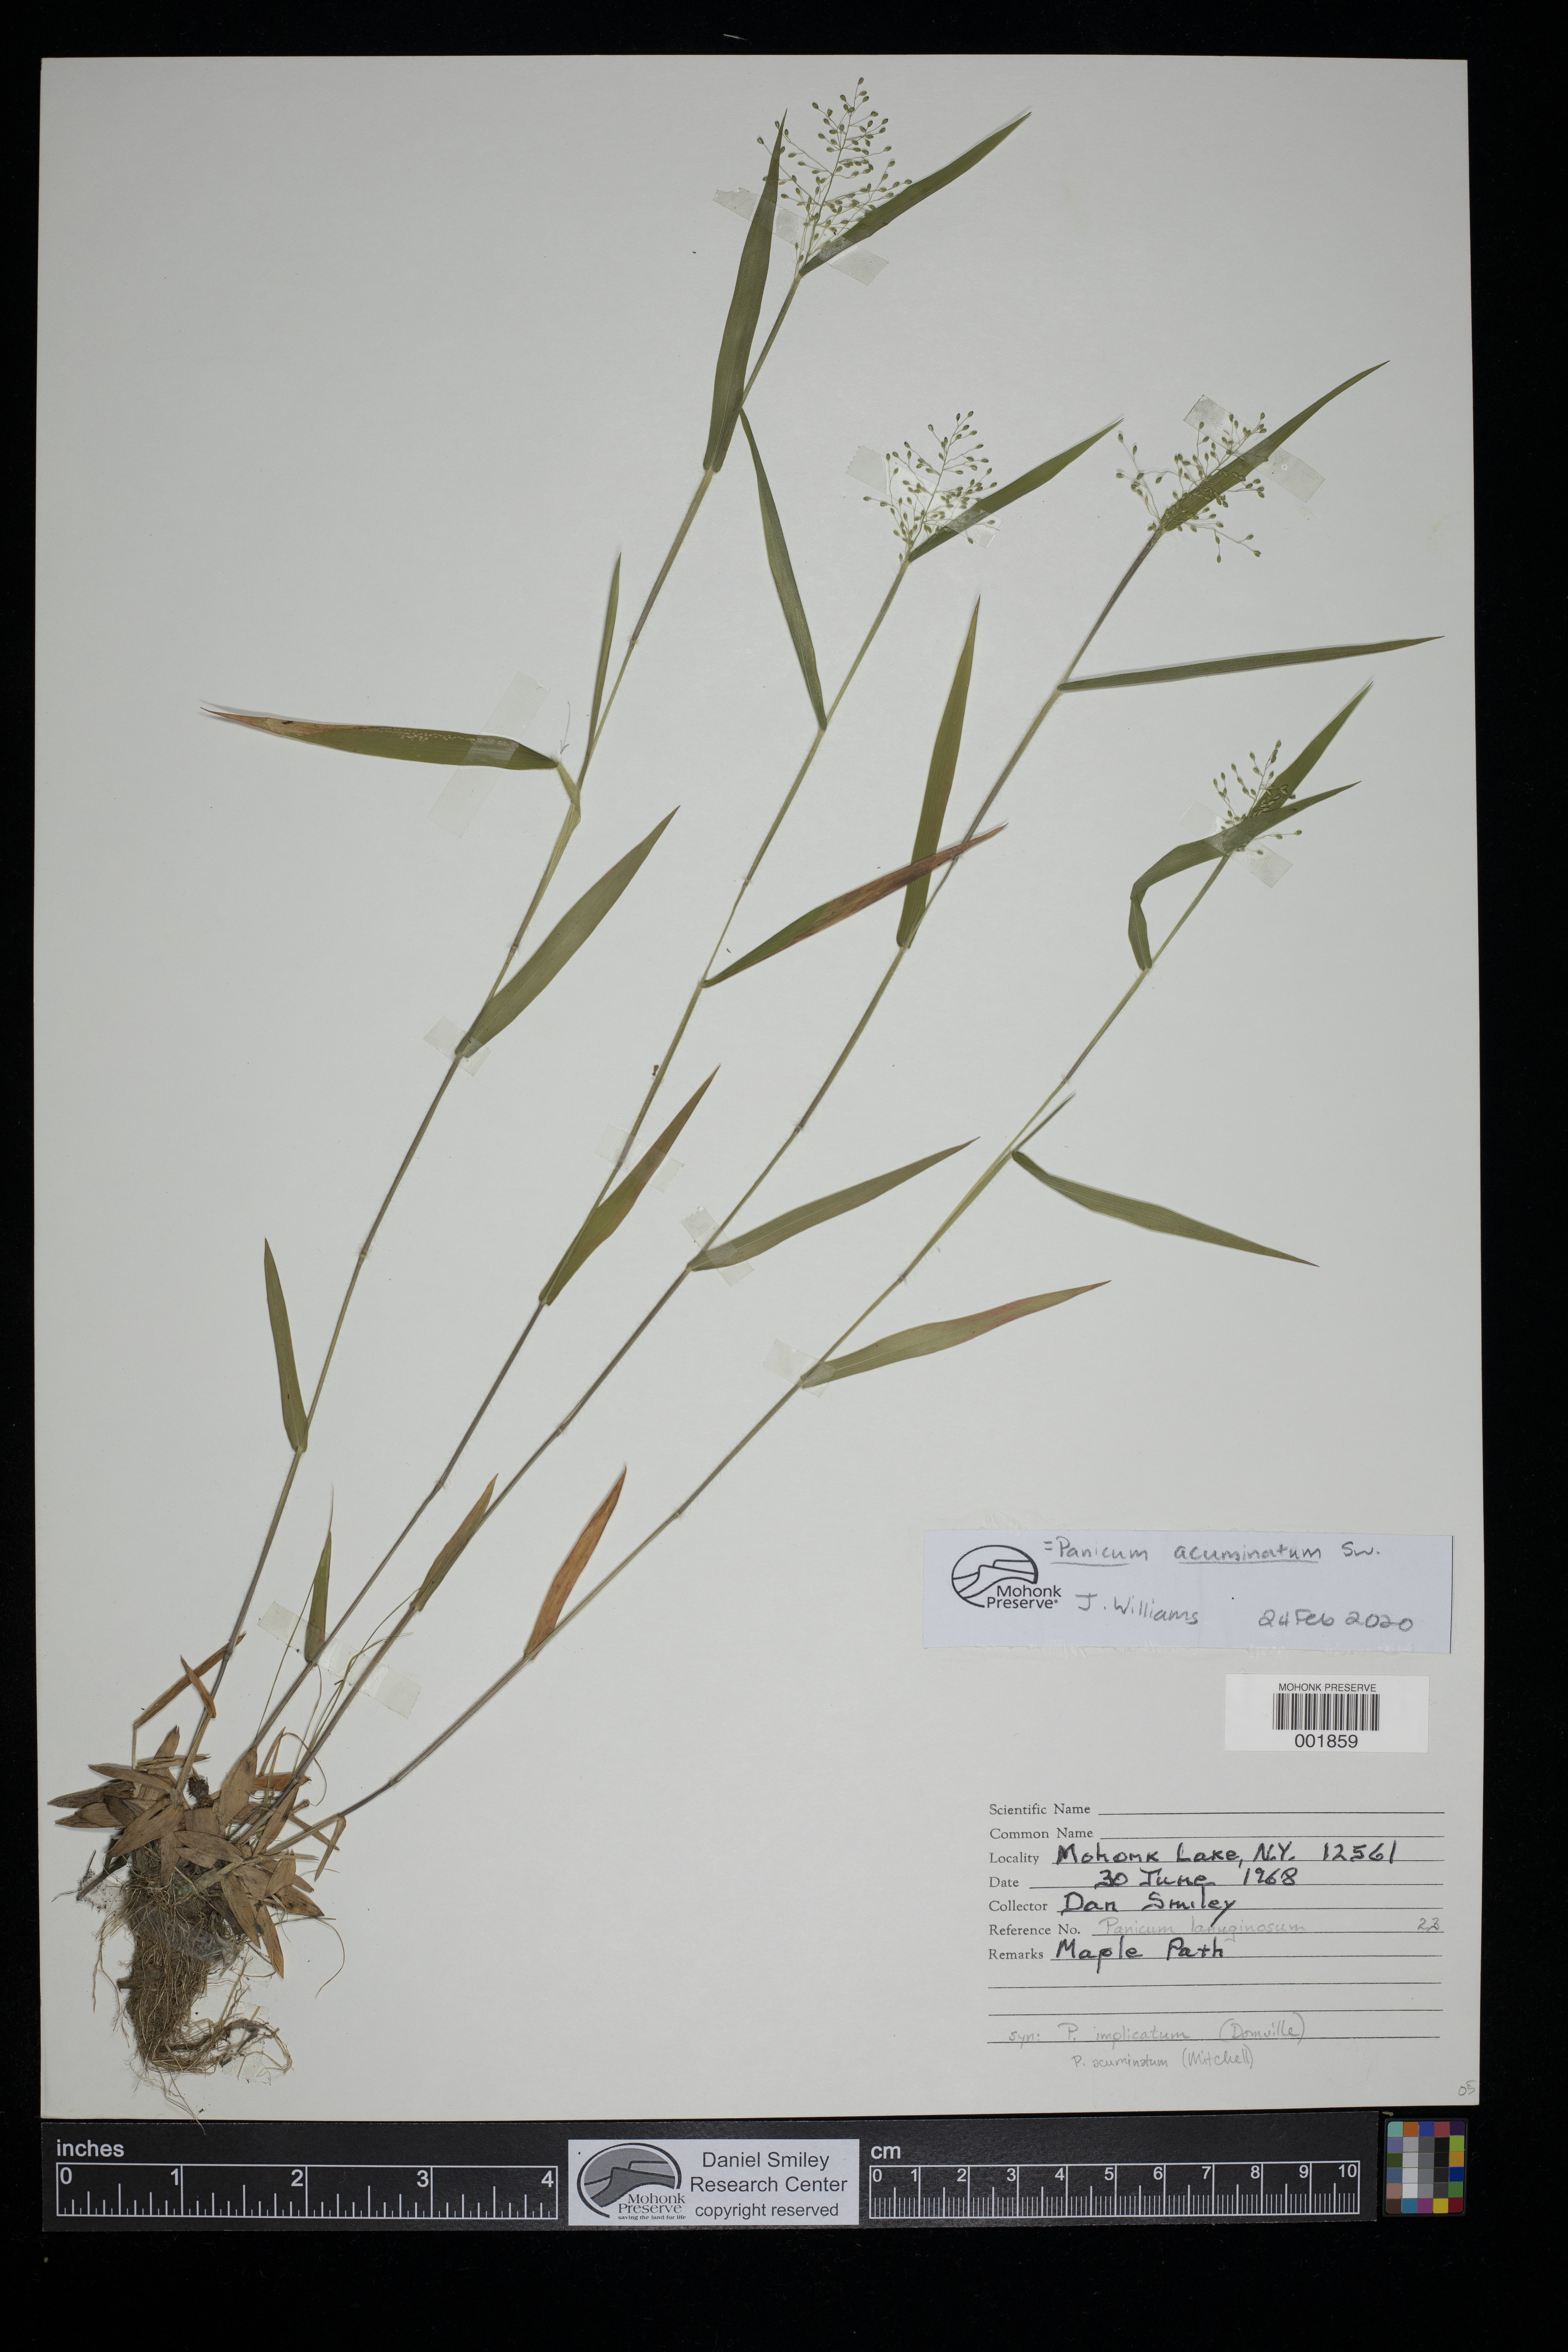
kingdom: Plantae
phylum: Tracheophyta
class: Liliopsida
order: Poales
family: Poaceae
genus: Dichanthelium
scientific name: Dichanthelium acuminatum
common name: Hairy panic grass
